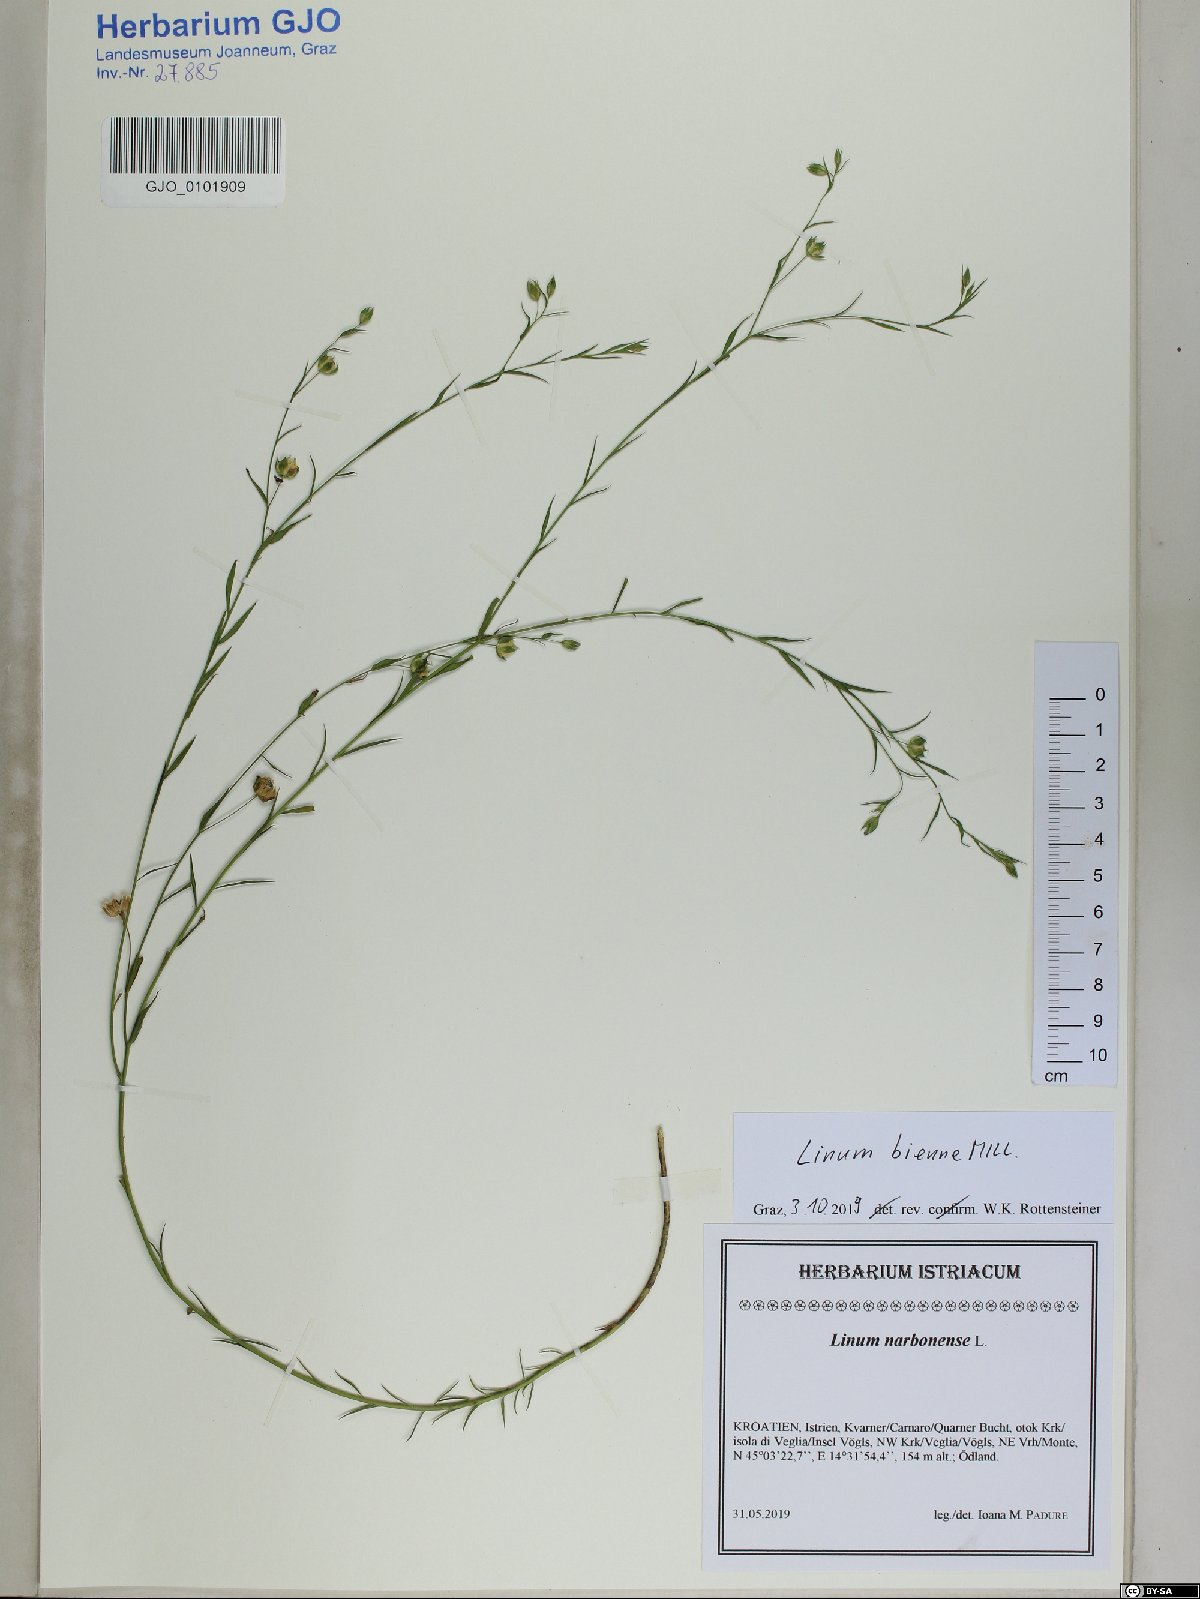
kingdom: Plantae
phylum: Tracheophyta
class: Magnoliopsida
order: Malpighiales
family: Linaceae
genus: Linum
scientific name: Linum bienne
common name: Pale flax
